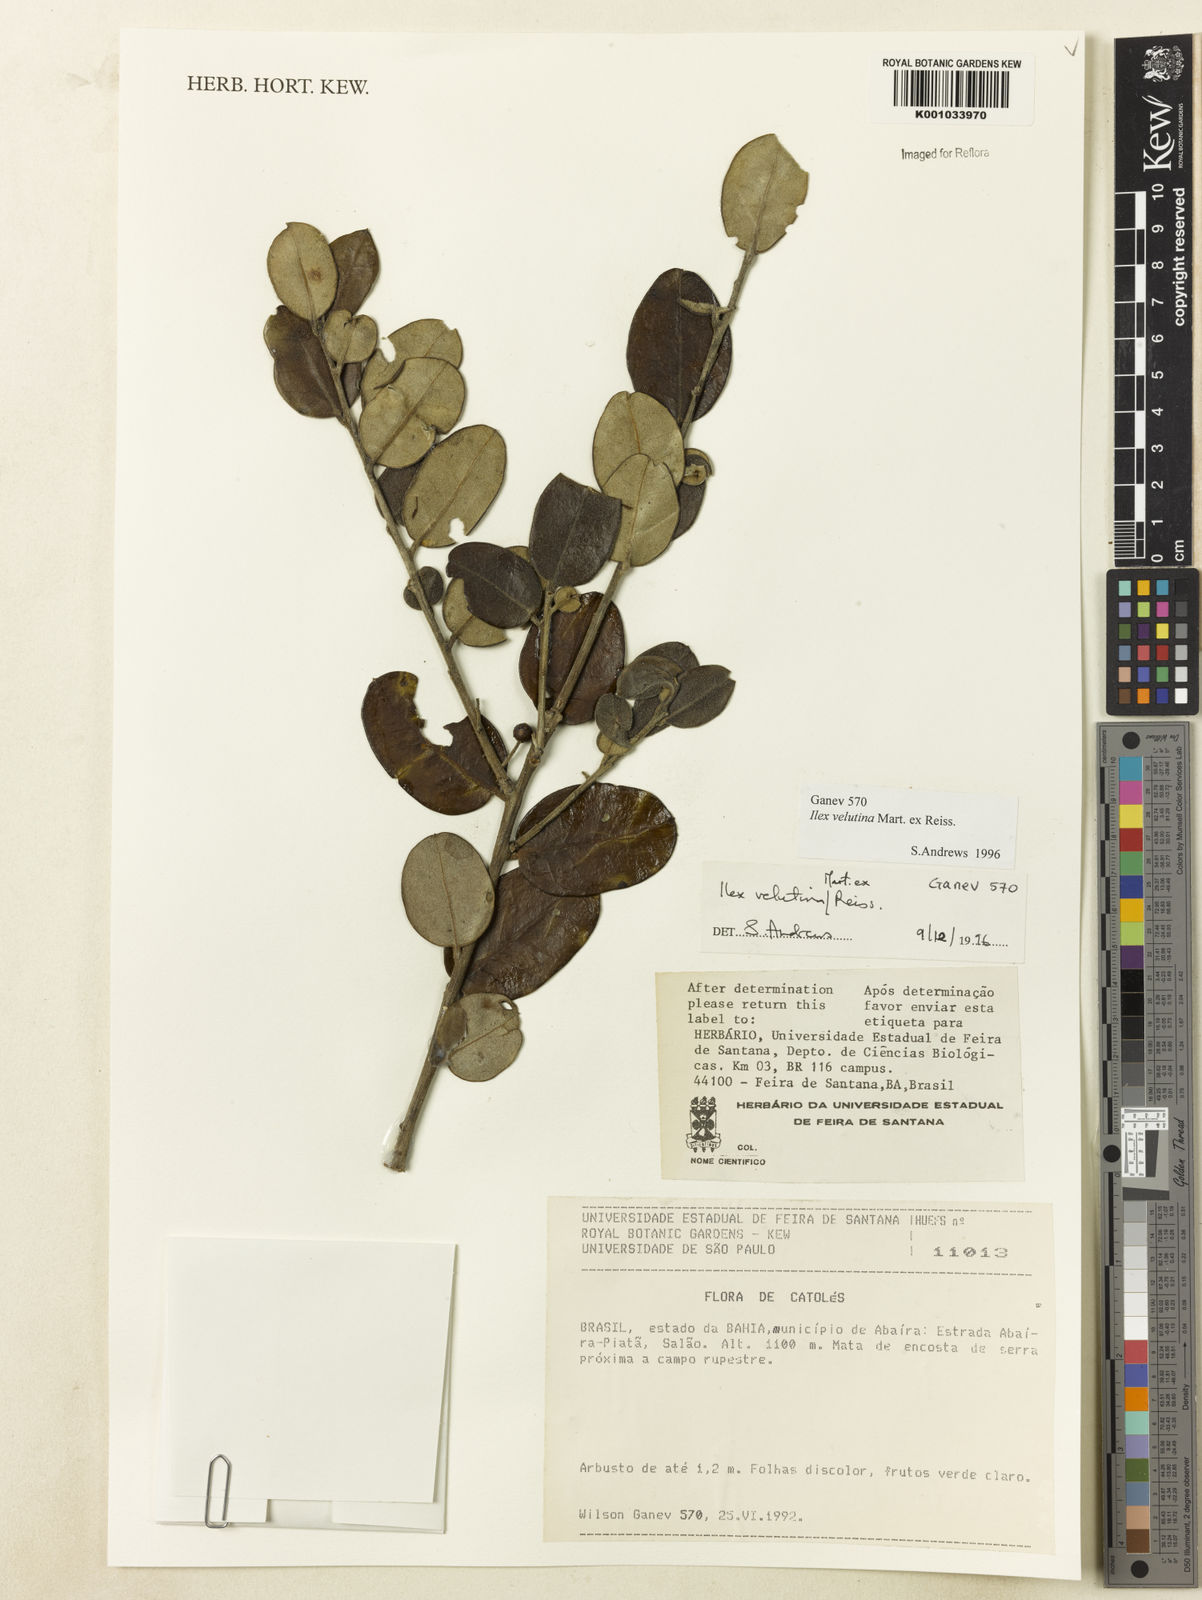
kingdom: Plantae
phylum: Tracheophyta
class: Magnoliopsida
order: Aquifoliales
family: Aquifoliaceae
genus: Ilex
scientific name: Ilex velutina
